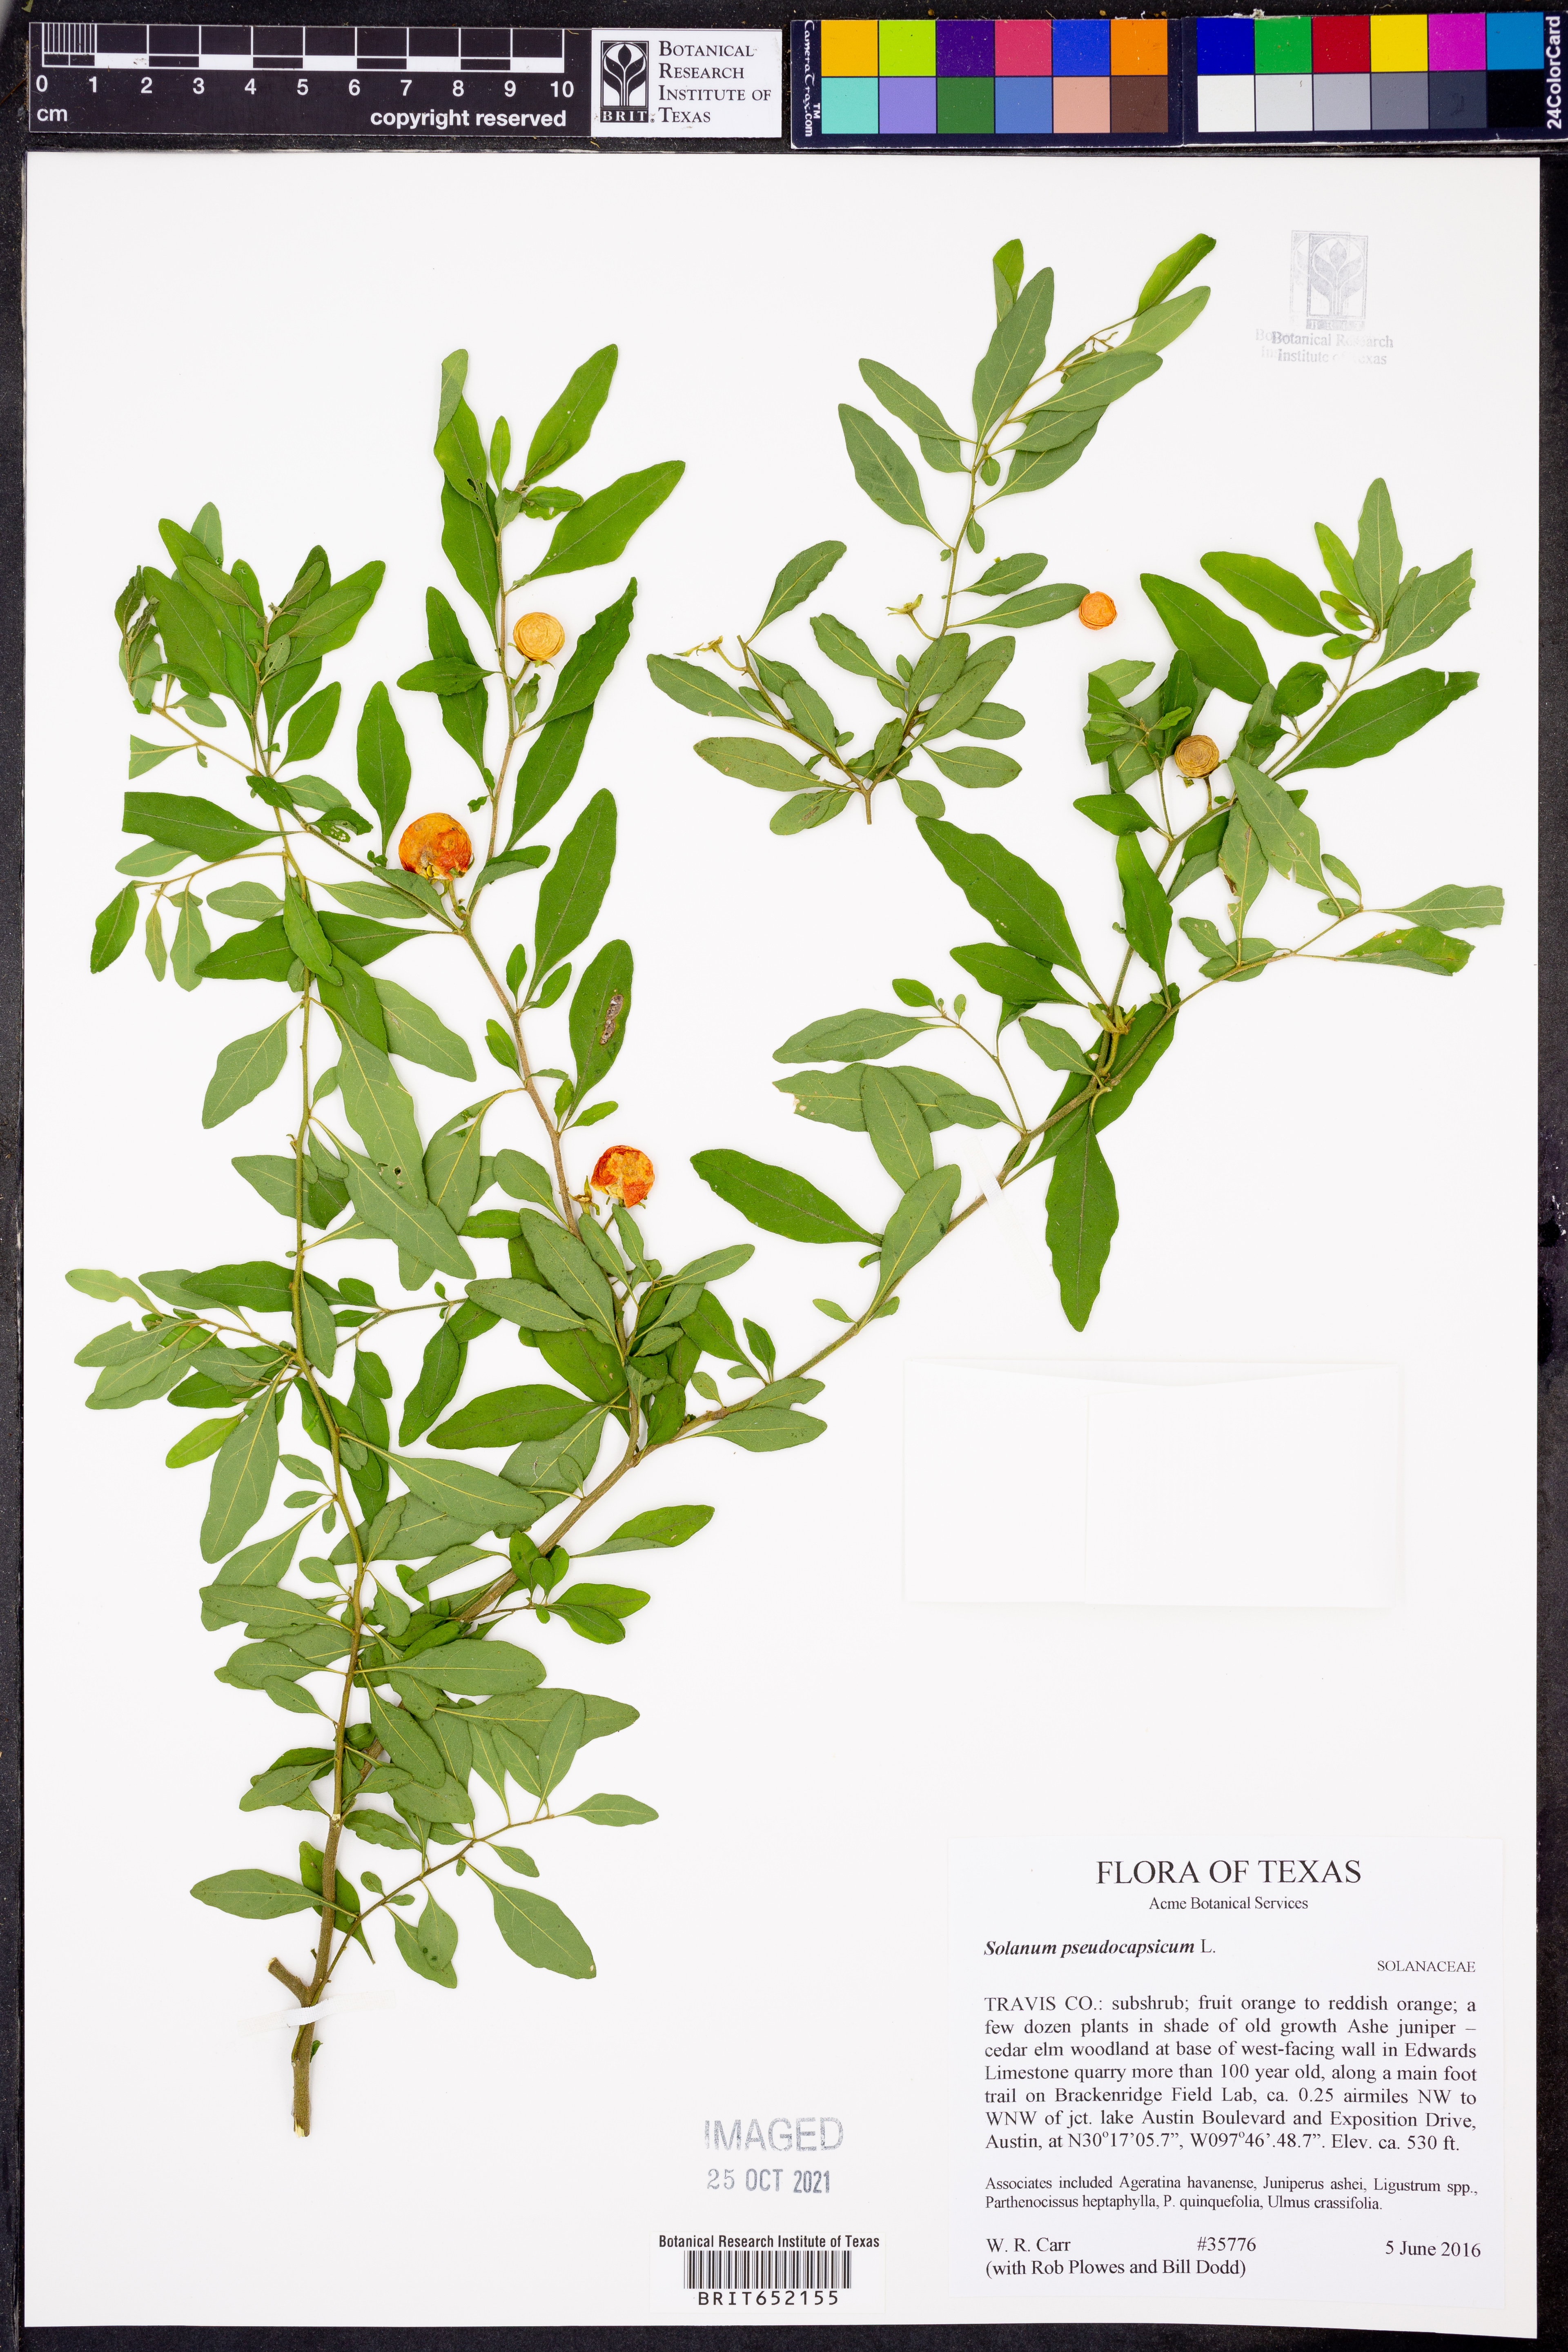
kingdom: Plantae
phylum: Tracheophyta
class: Magnoliopsida
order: Solanales
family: Solanaceae
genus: Solanum
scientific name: Solanum pseudocapsicum
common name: Jerusalem cherry
